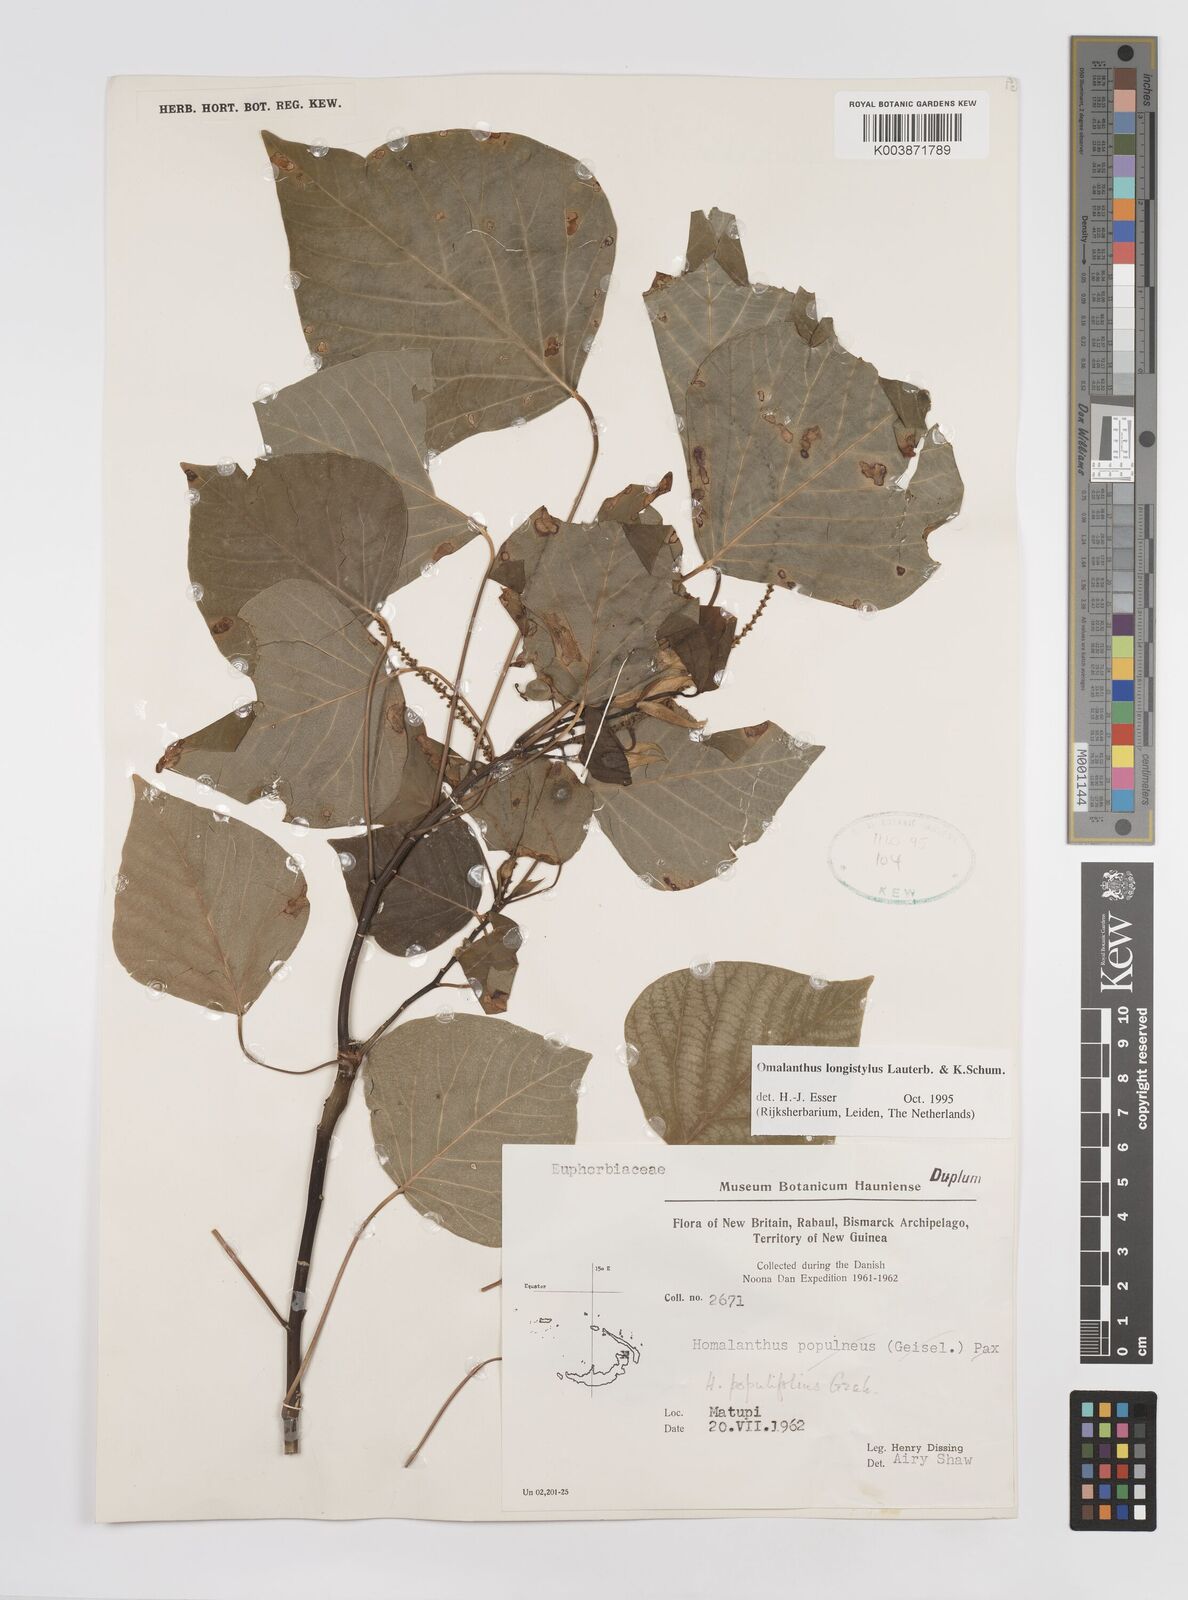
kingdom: Plantae
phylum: Tracheophyta
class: Magnoliopsida
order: Malpighiales
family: Euphorbiaceae
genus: Homalanthus
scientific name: Homalanthus longistylus
